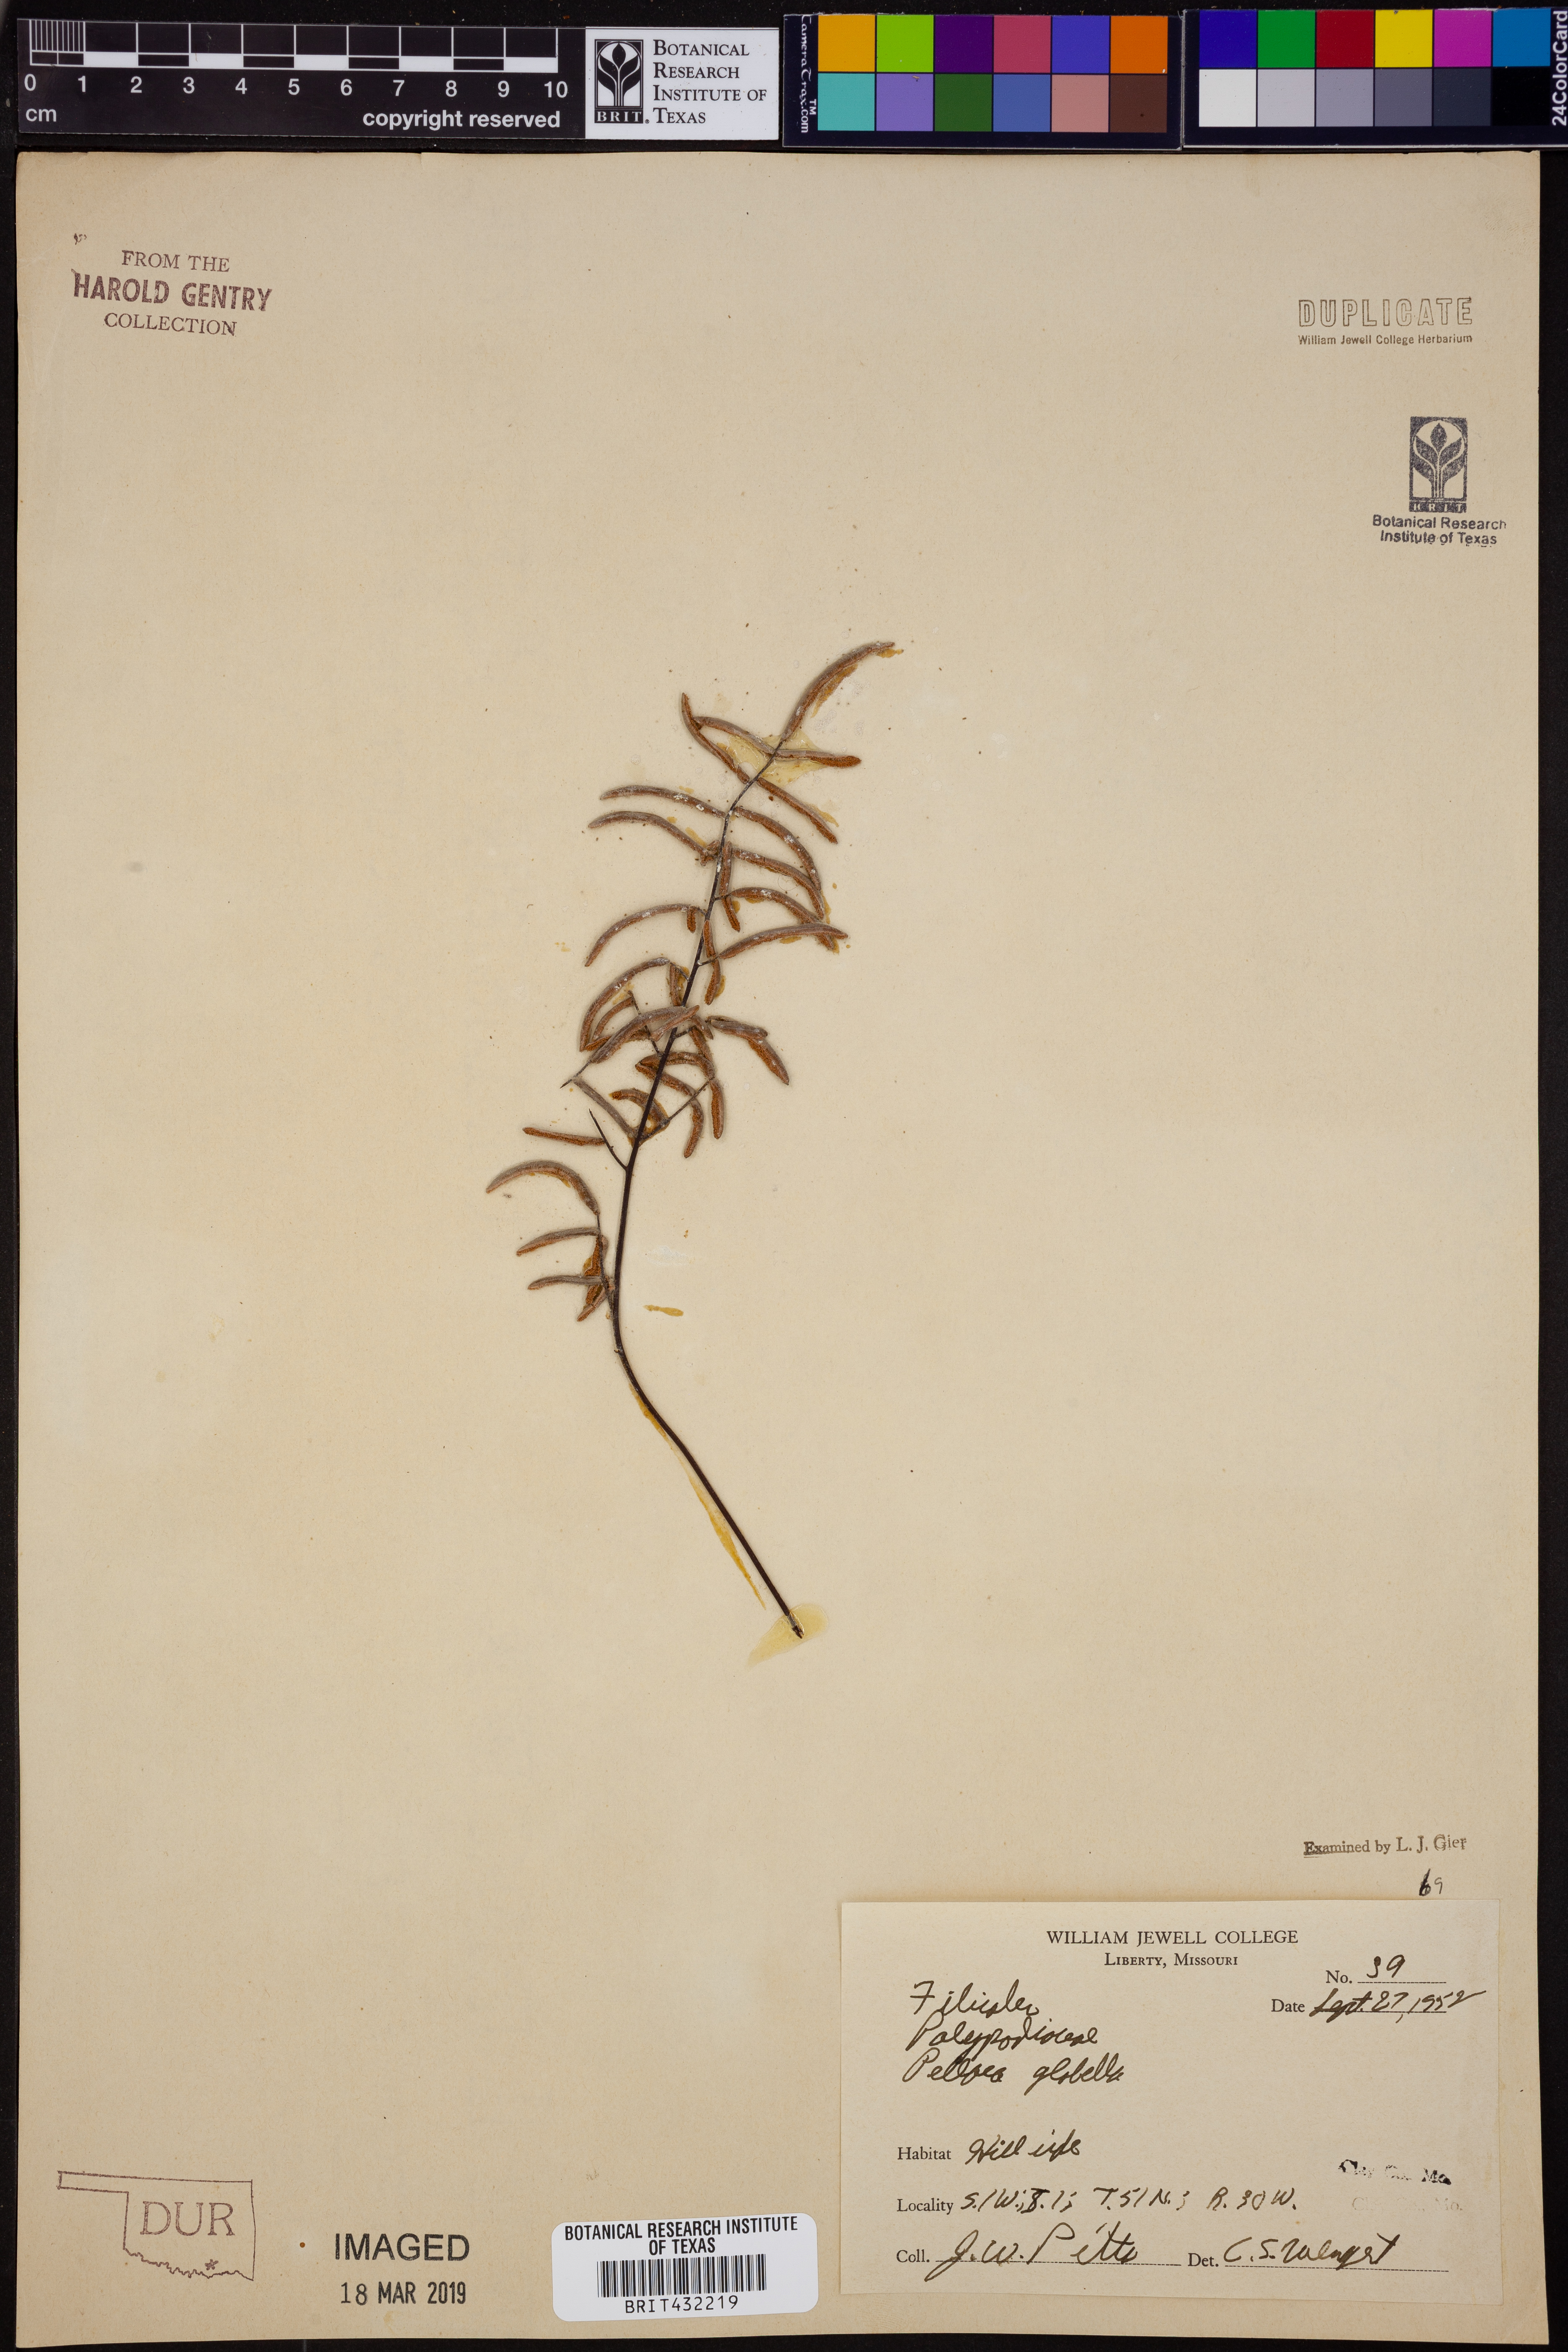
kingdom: Plantae
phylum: Tracheophyta
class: Polypodiopsida
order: Polypodiales
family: Pteridaceae
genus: Pellaea
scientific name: Pellaea glabella
